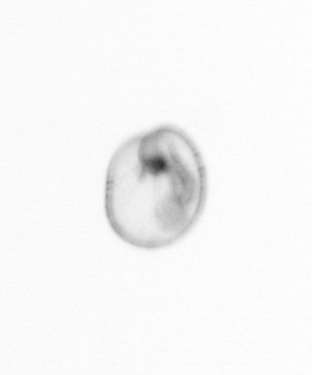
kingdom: Chromista
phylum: Myzozoa
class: Dinophyceae
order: Noctilucales
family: Noctilucaceae
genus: Noctiluca
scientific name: Noctiluca scintillans
